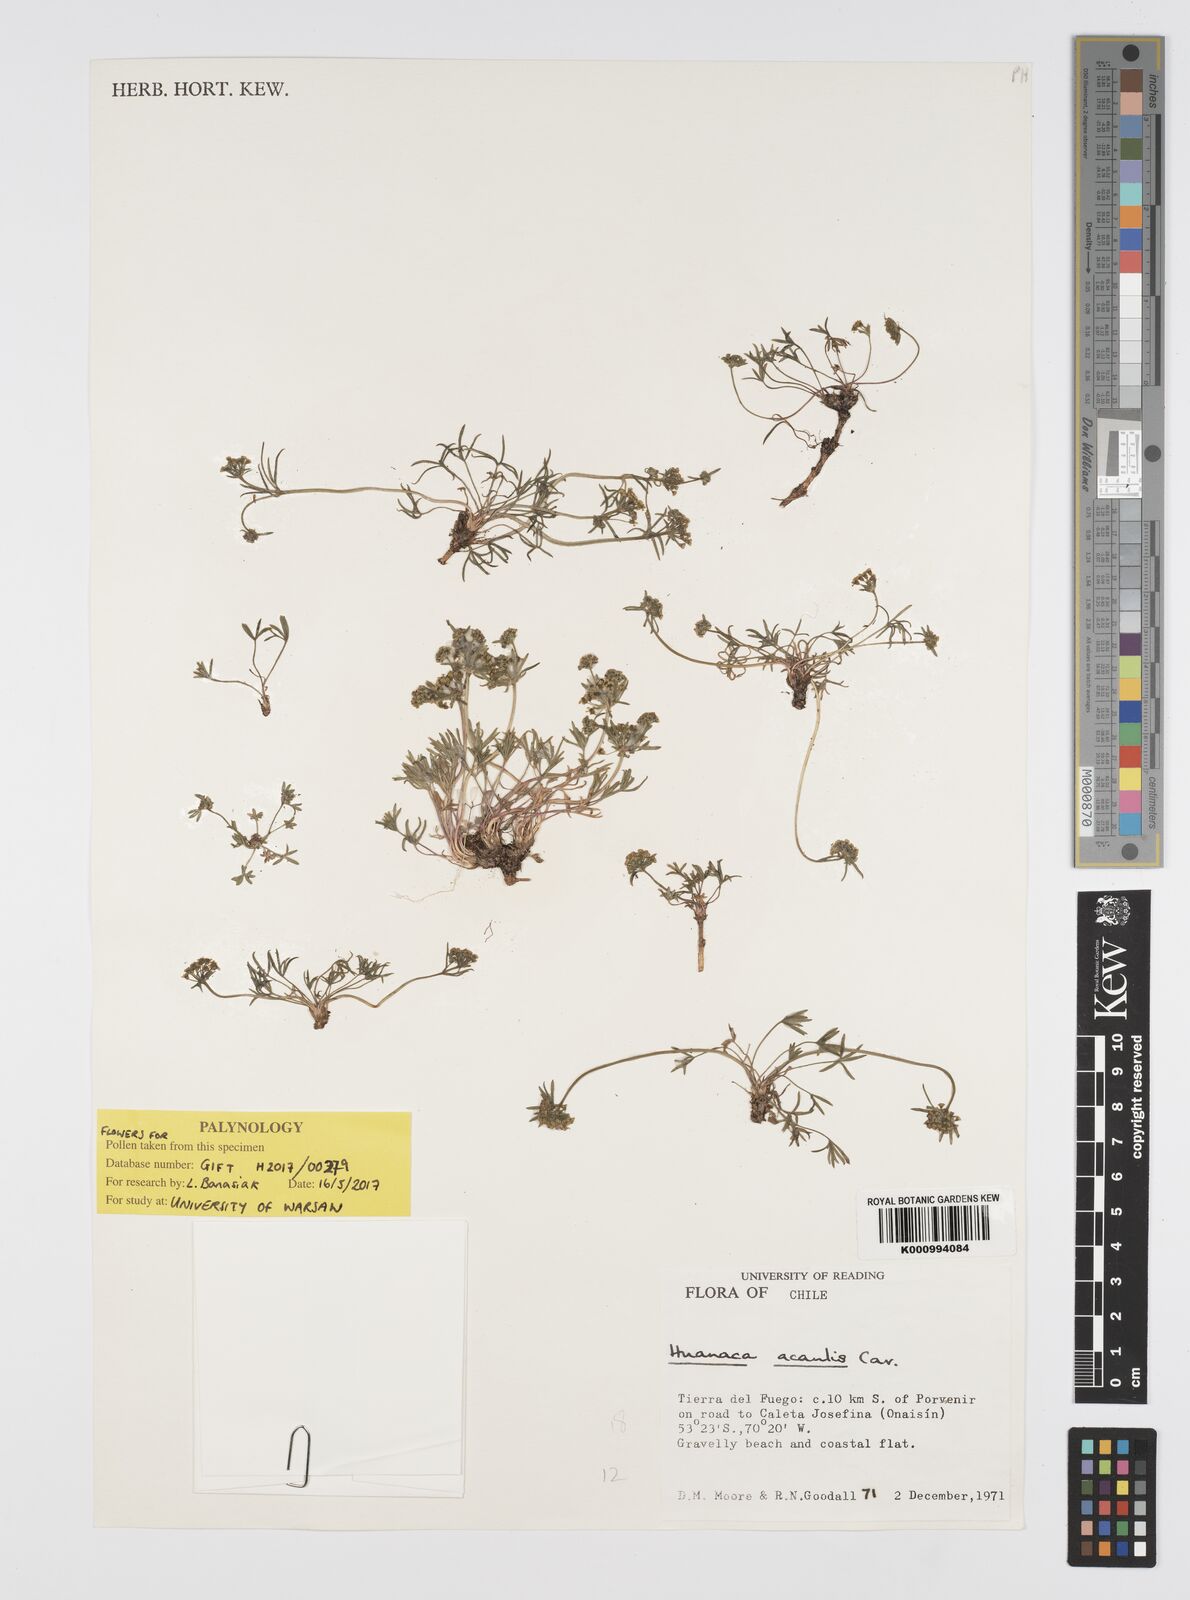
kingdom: Plantae
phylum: Tracheophyta
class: Magnoliopsida
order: Apiales
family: Apiaceae
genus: Azorella
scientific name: Azorella acaulis
